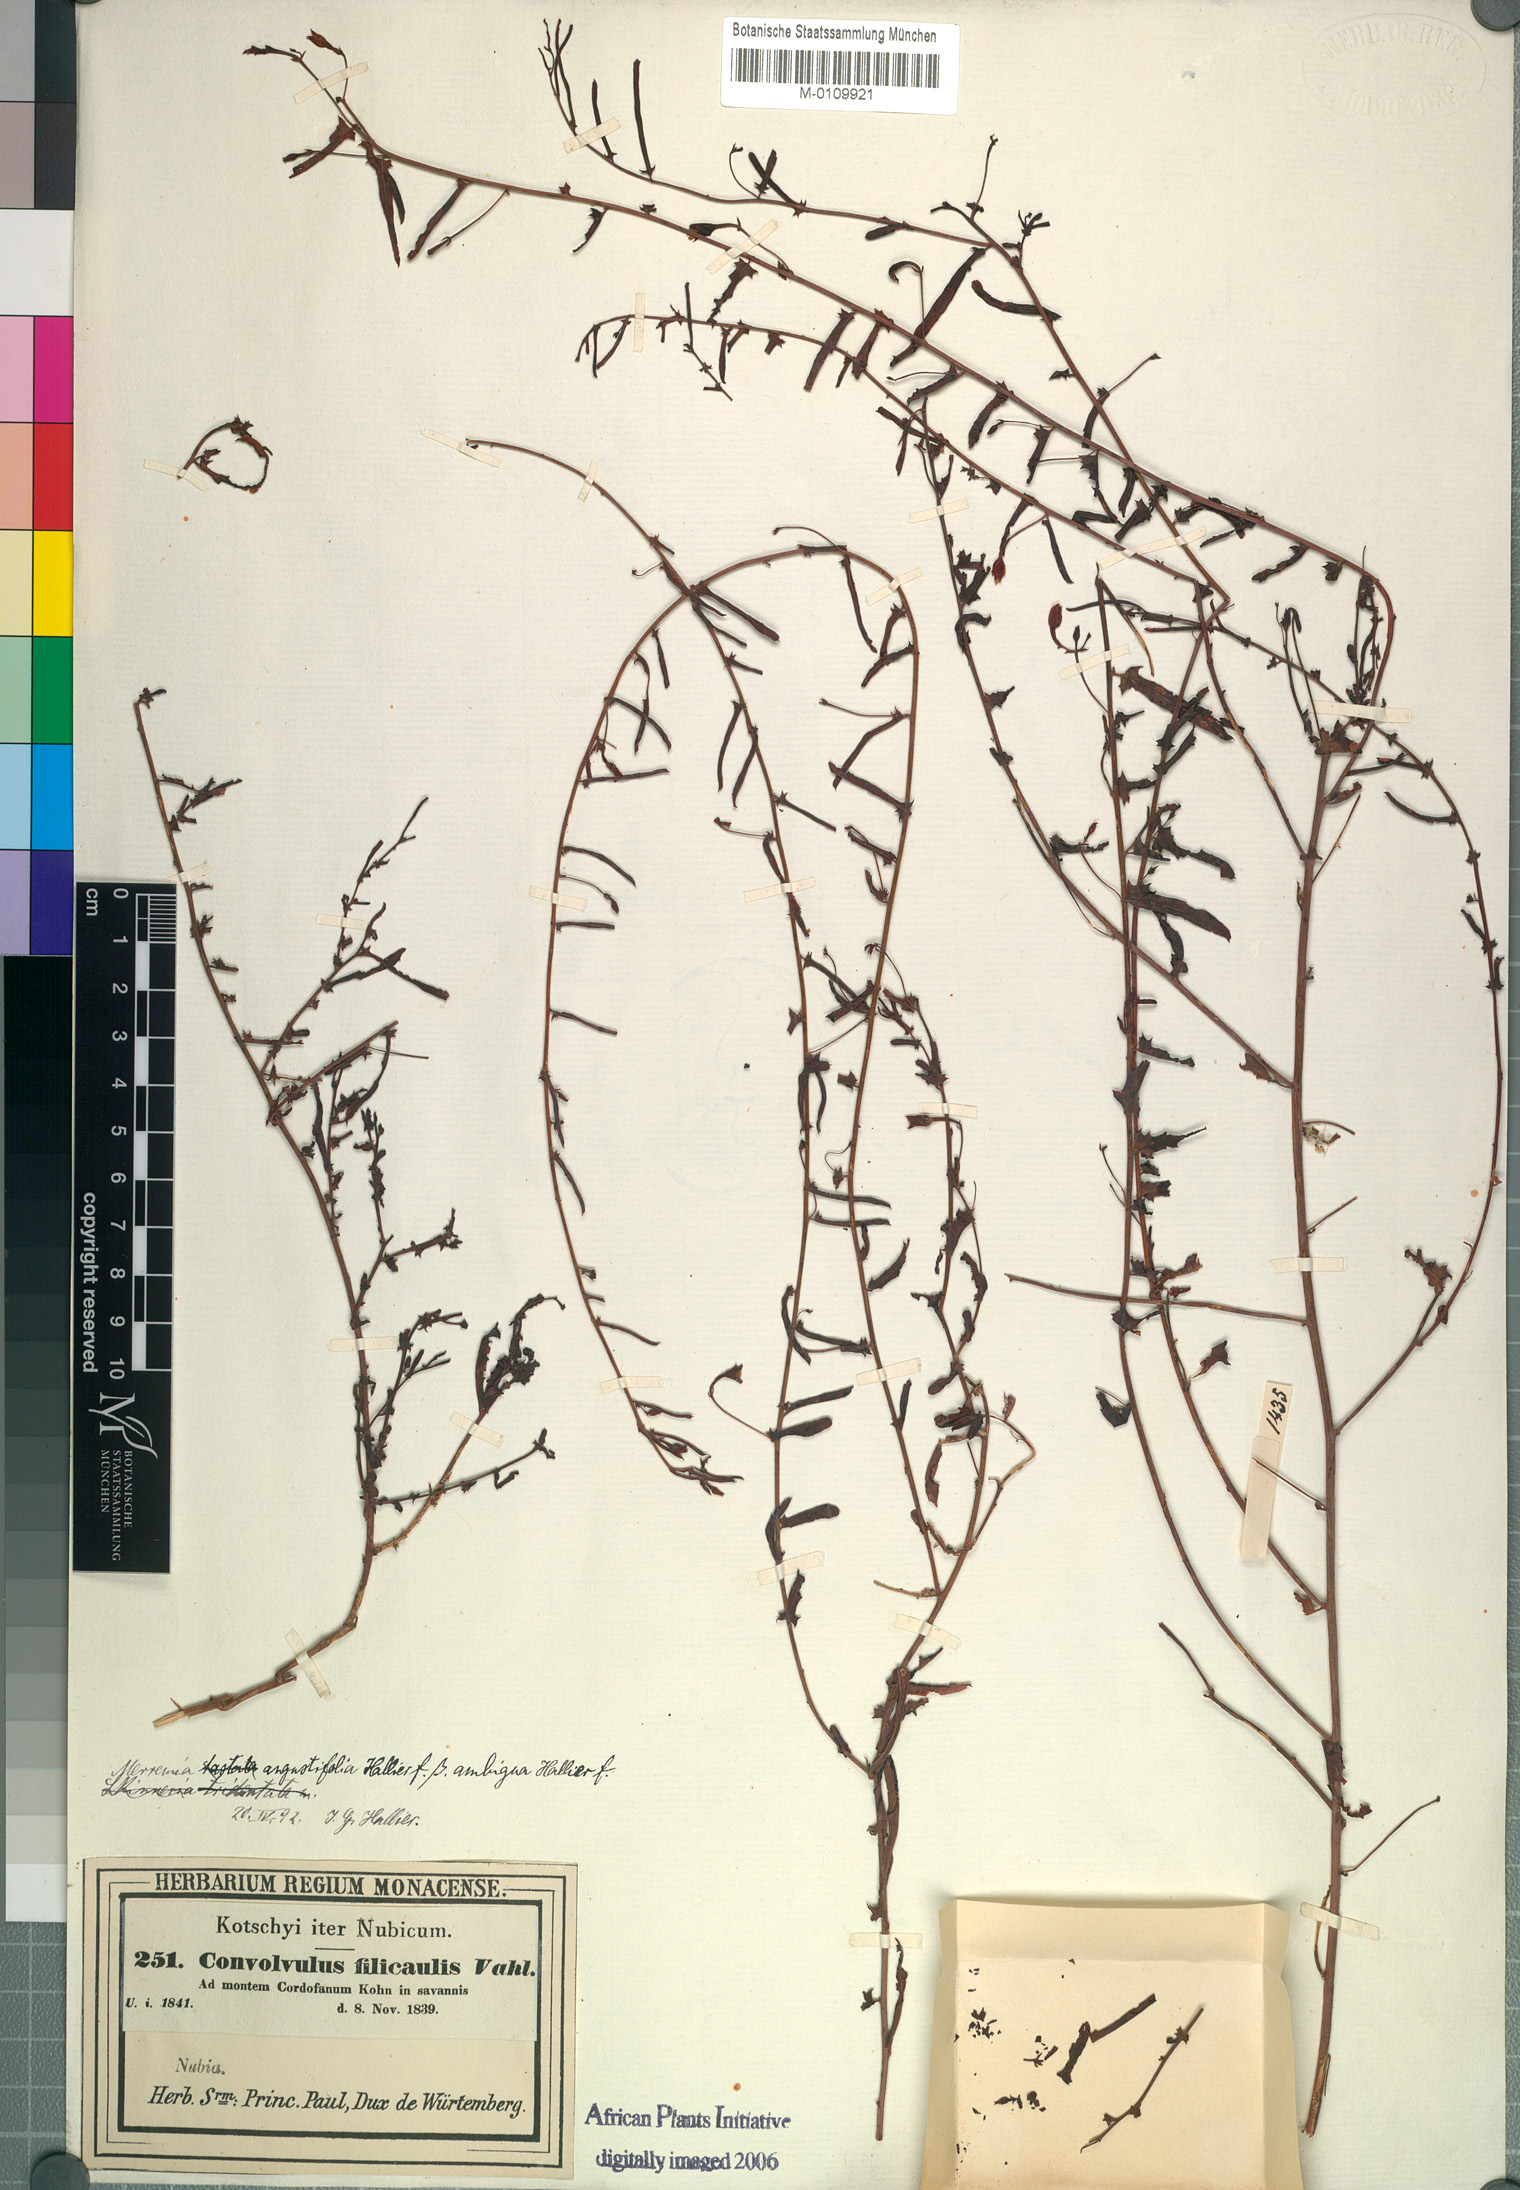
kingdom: Plantae
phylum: Tracheophyta
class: Magnoliopsida
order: Solanales
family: Convolvulaceae
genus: Xenostegia
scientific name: Xenostegia tridentata
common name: African morningvine
